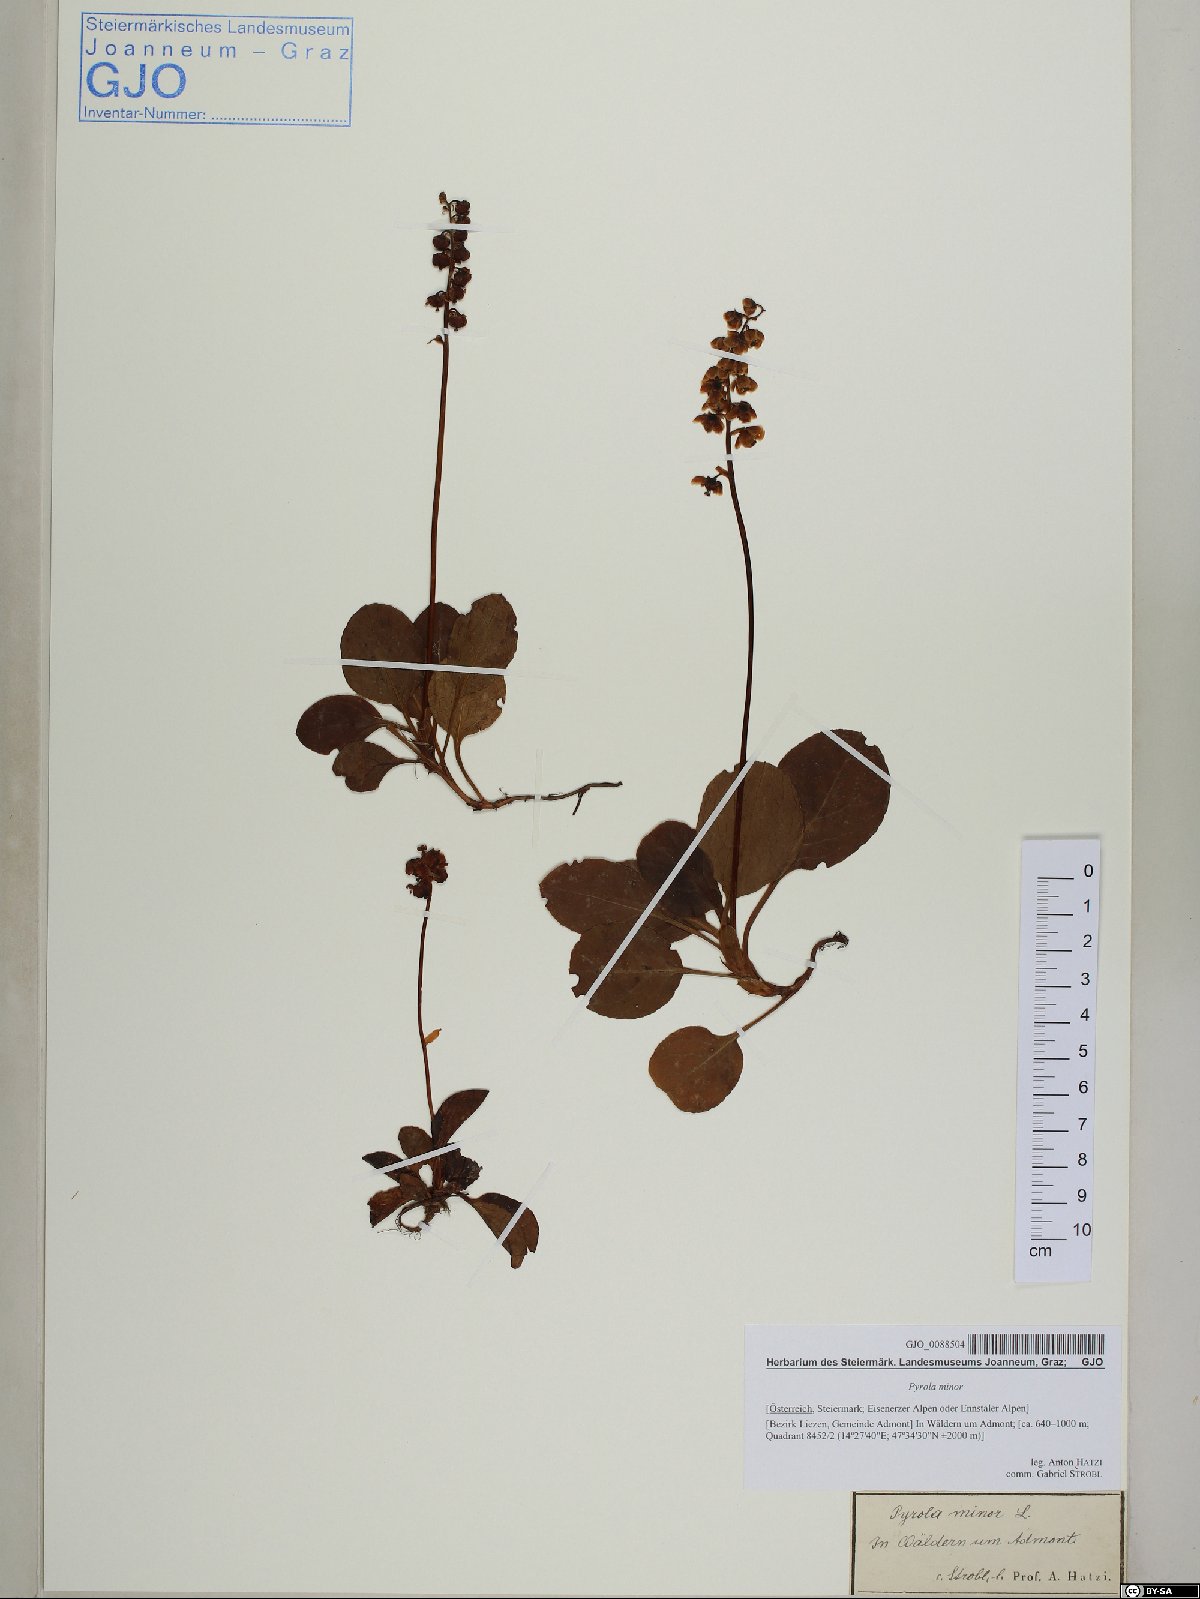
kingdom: Plantae
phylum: Tracheophyta
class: Magnoliopsida
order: Ericales
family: Ericaceae
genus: Pyrola
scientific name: Pyrola minor
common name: Common wintergreen
